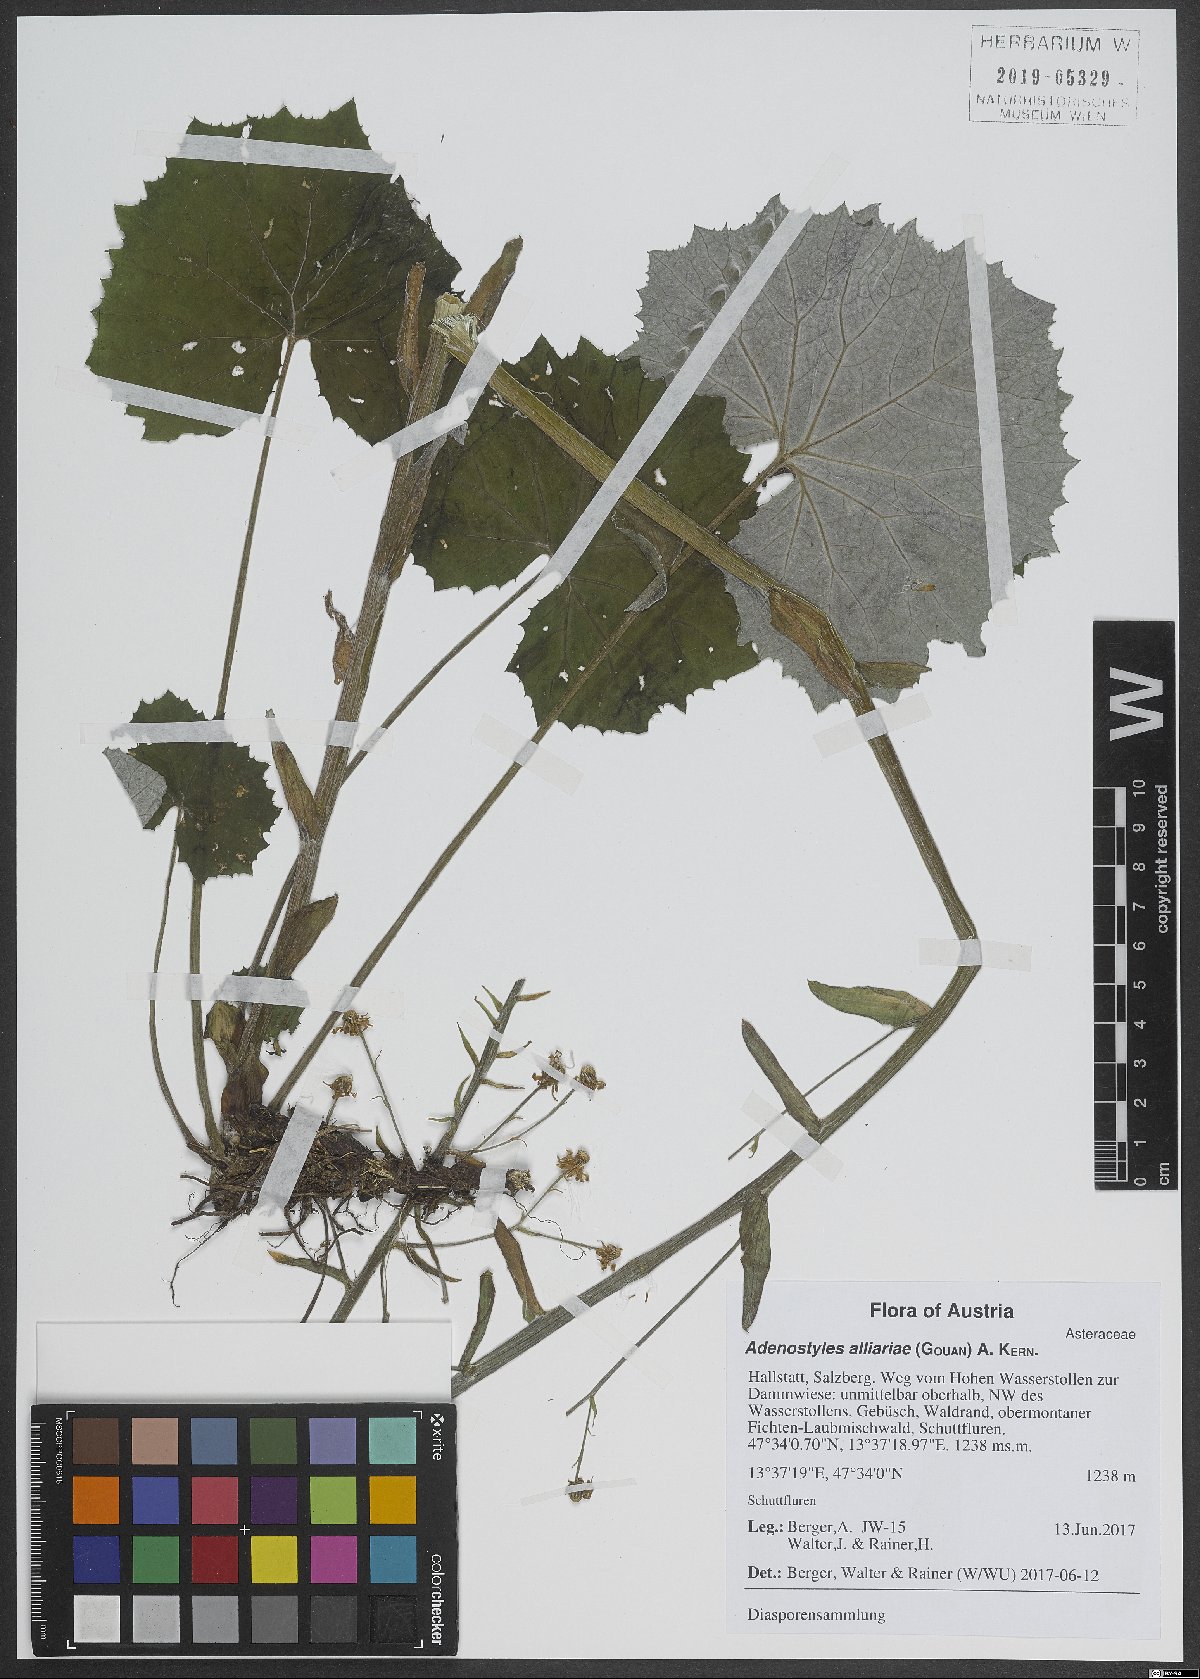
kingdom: Plantae
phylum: Tracheophyta
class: Magnoliopsida
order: Asterales
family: Asteraceae
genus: Adenostyles
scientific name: Adenostyles alliariae
